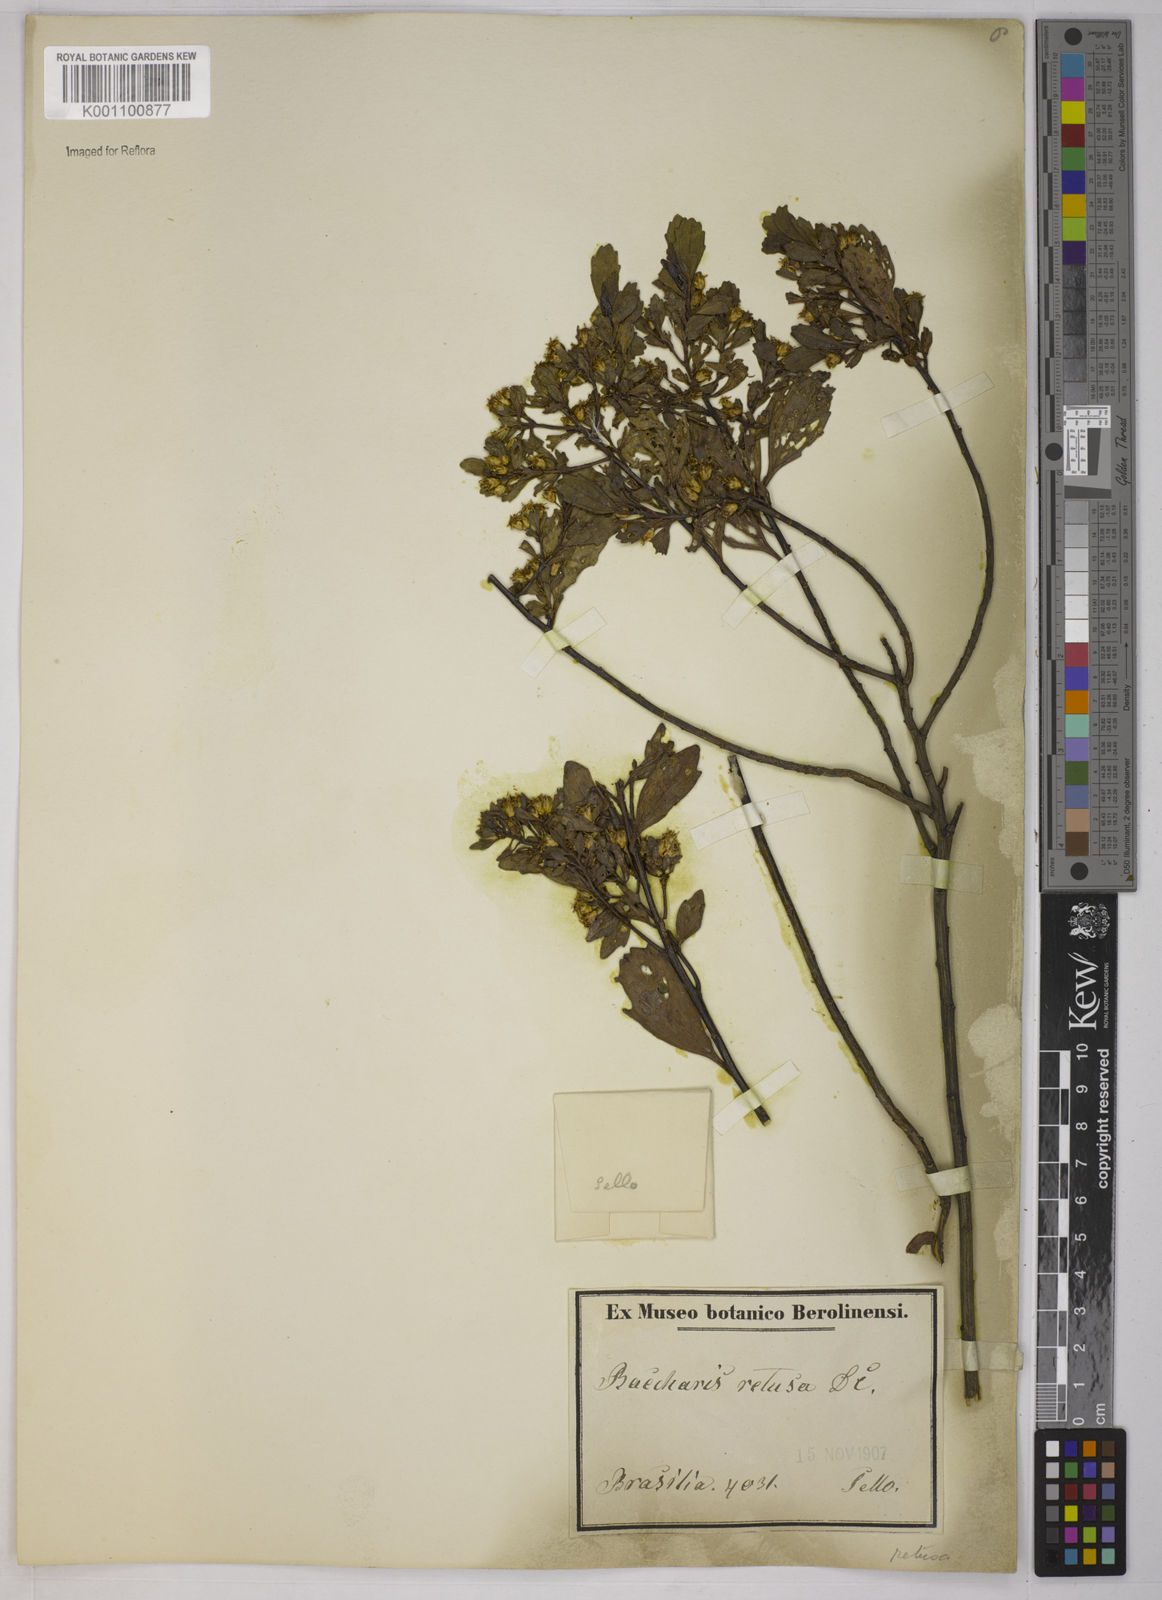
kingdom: Plantae
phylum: Tracheophyta
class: Magnoliopsida
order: Asterales
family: Asteraceae
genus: Baccharis
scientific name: Baccharis retusa
